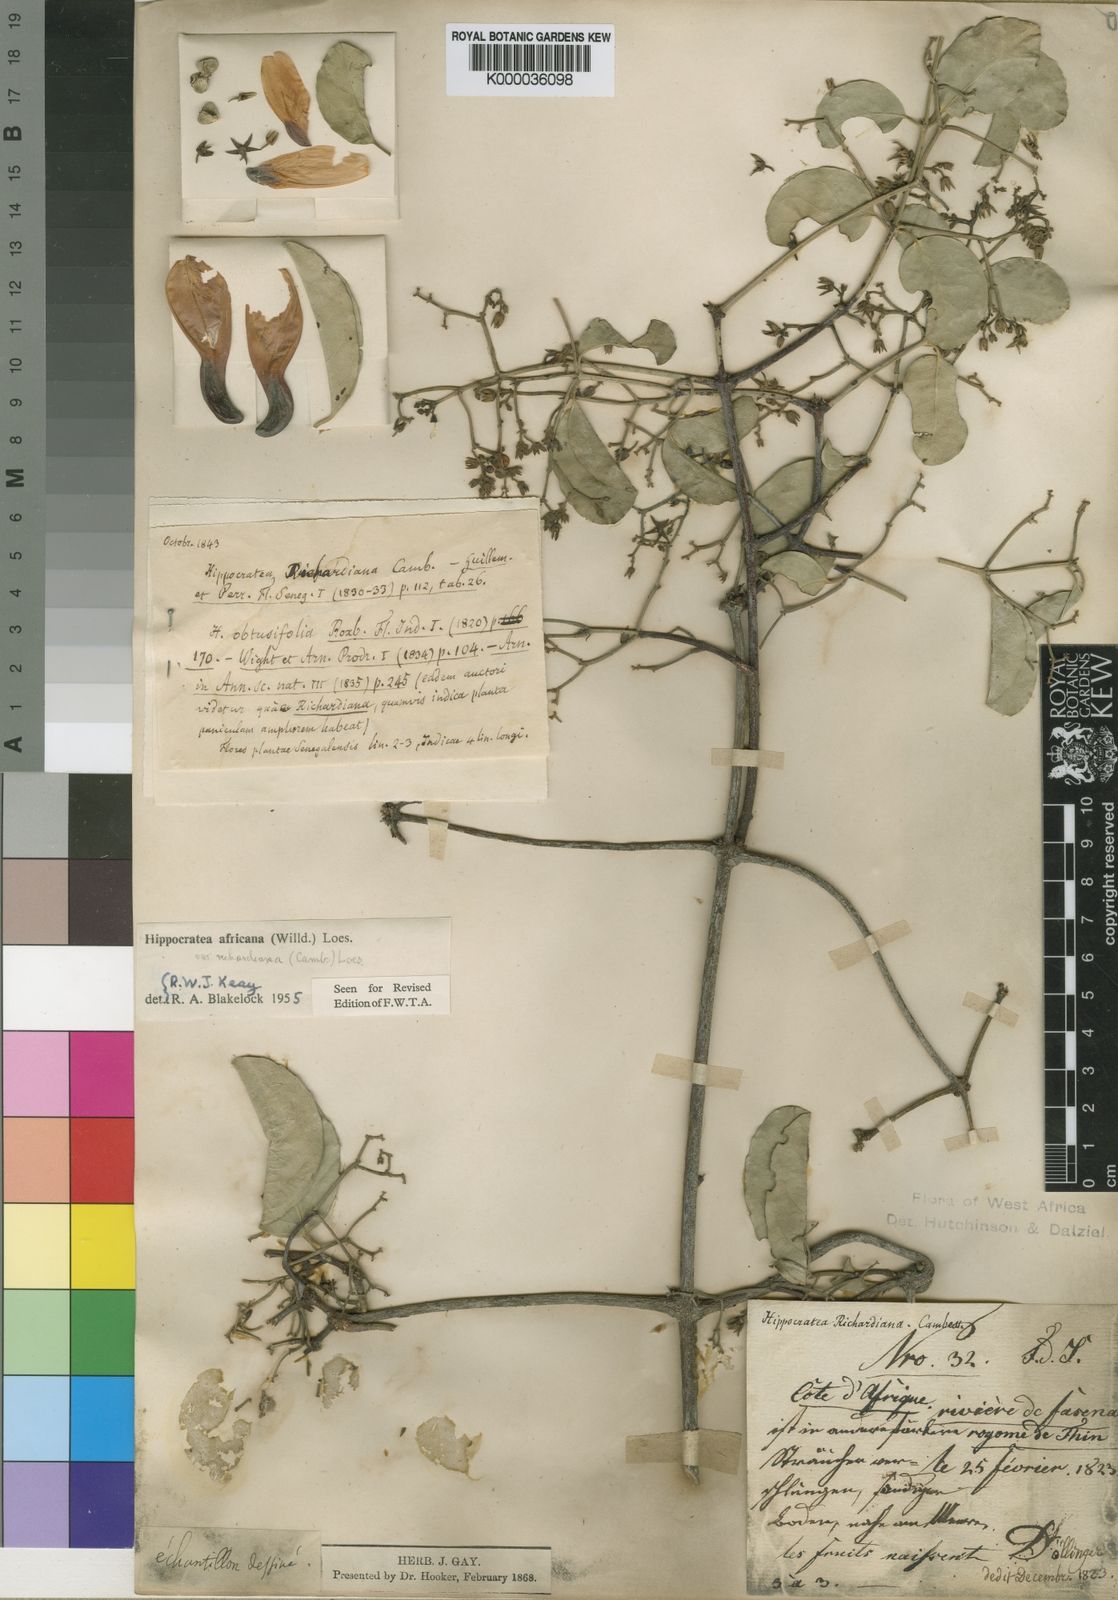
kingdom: Plantae
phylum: Tracheophyta
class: Magnoliopsida
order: Celastrales
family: Celastraceae
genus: Loeseneriella
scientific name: Loeseneriella
